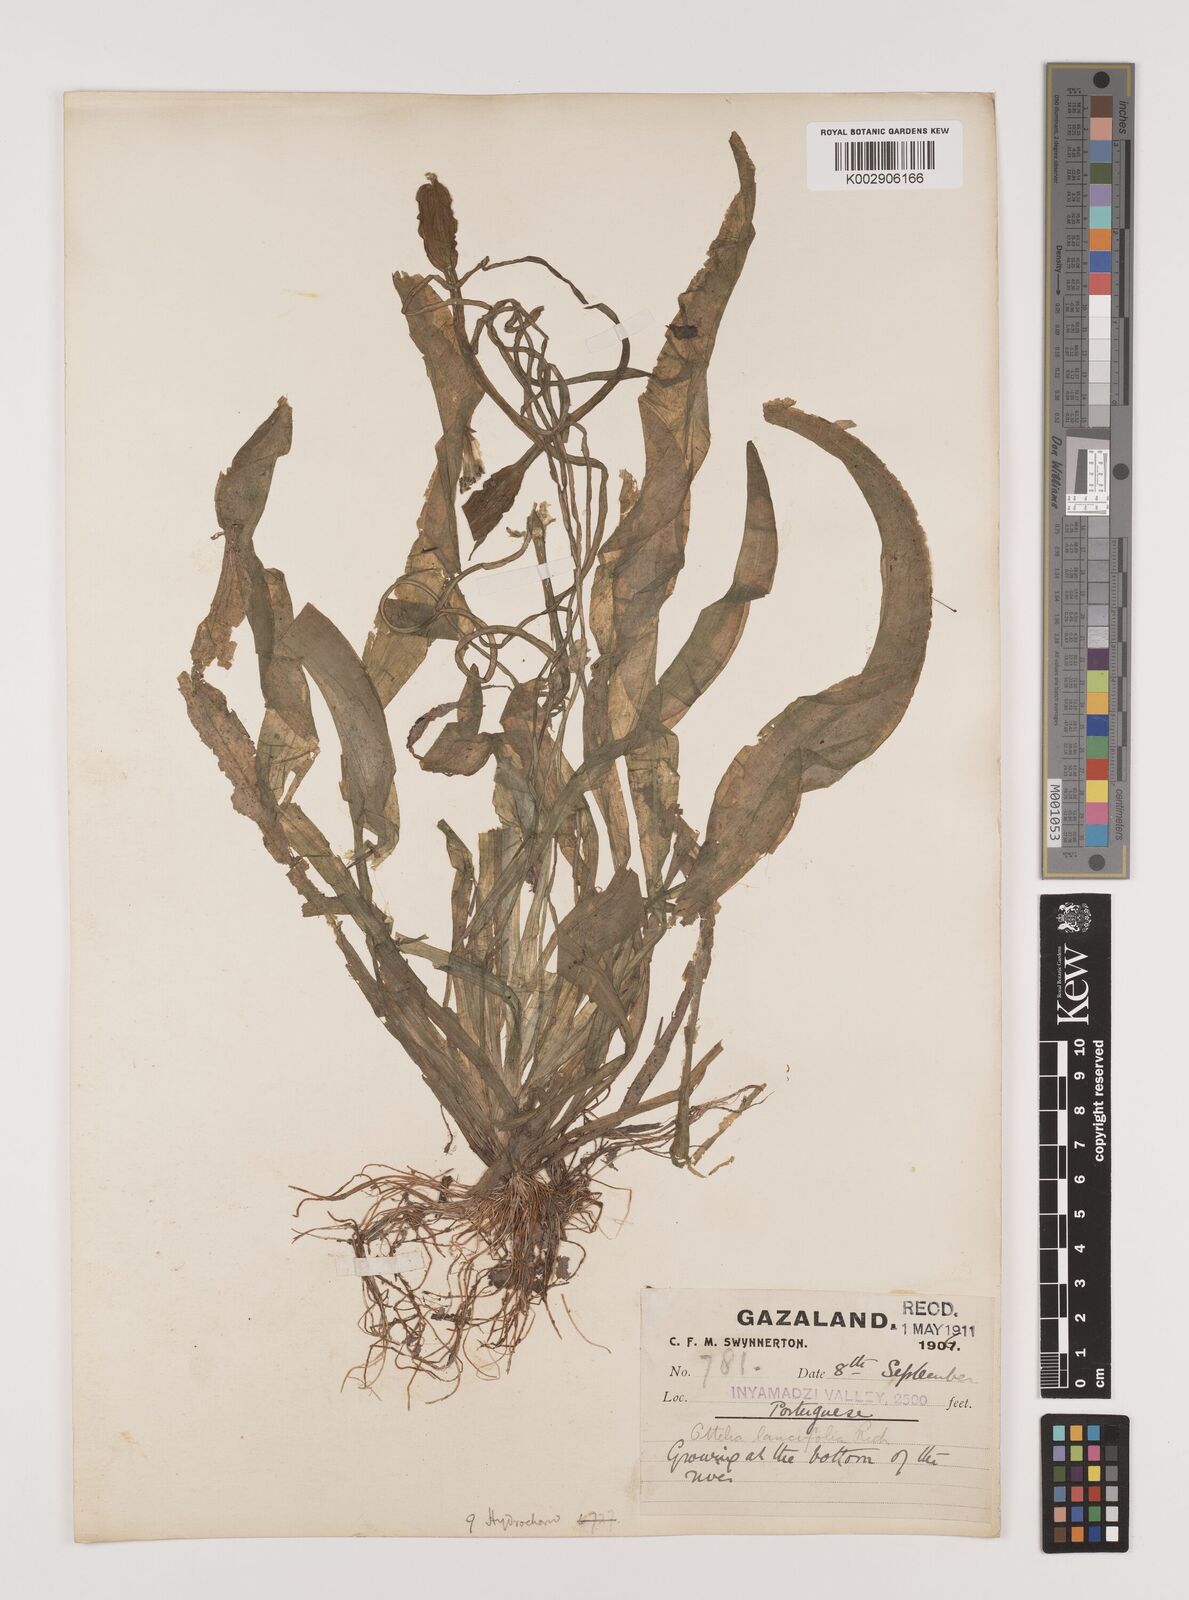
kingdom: Plantae
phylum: Tracheophyta
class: Liliopsida
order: Alismatales
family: Hydrocharitaceae
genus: Ottelia
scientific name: Ottelia ulvifolia
